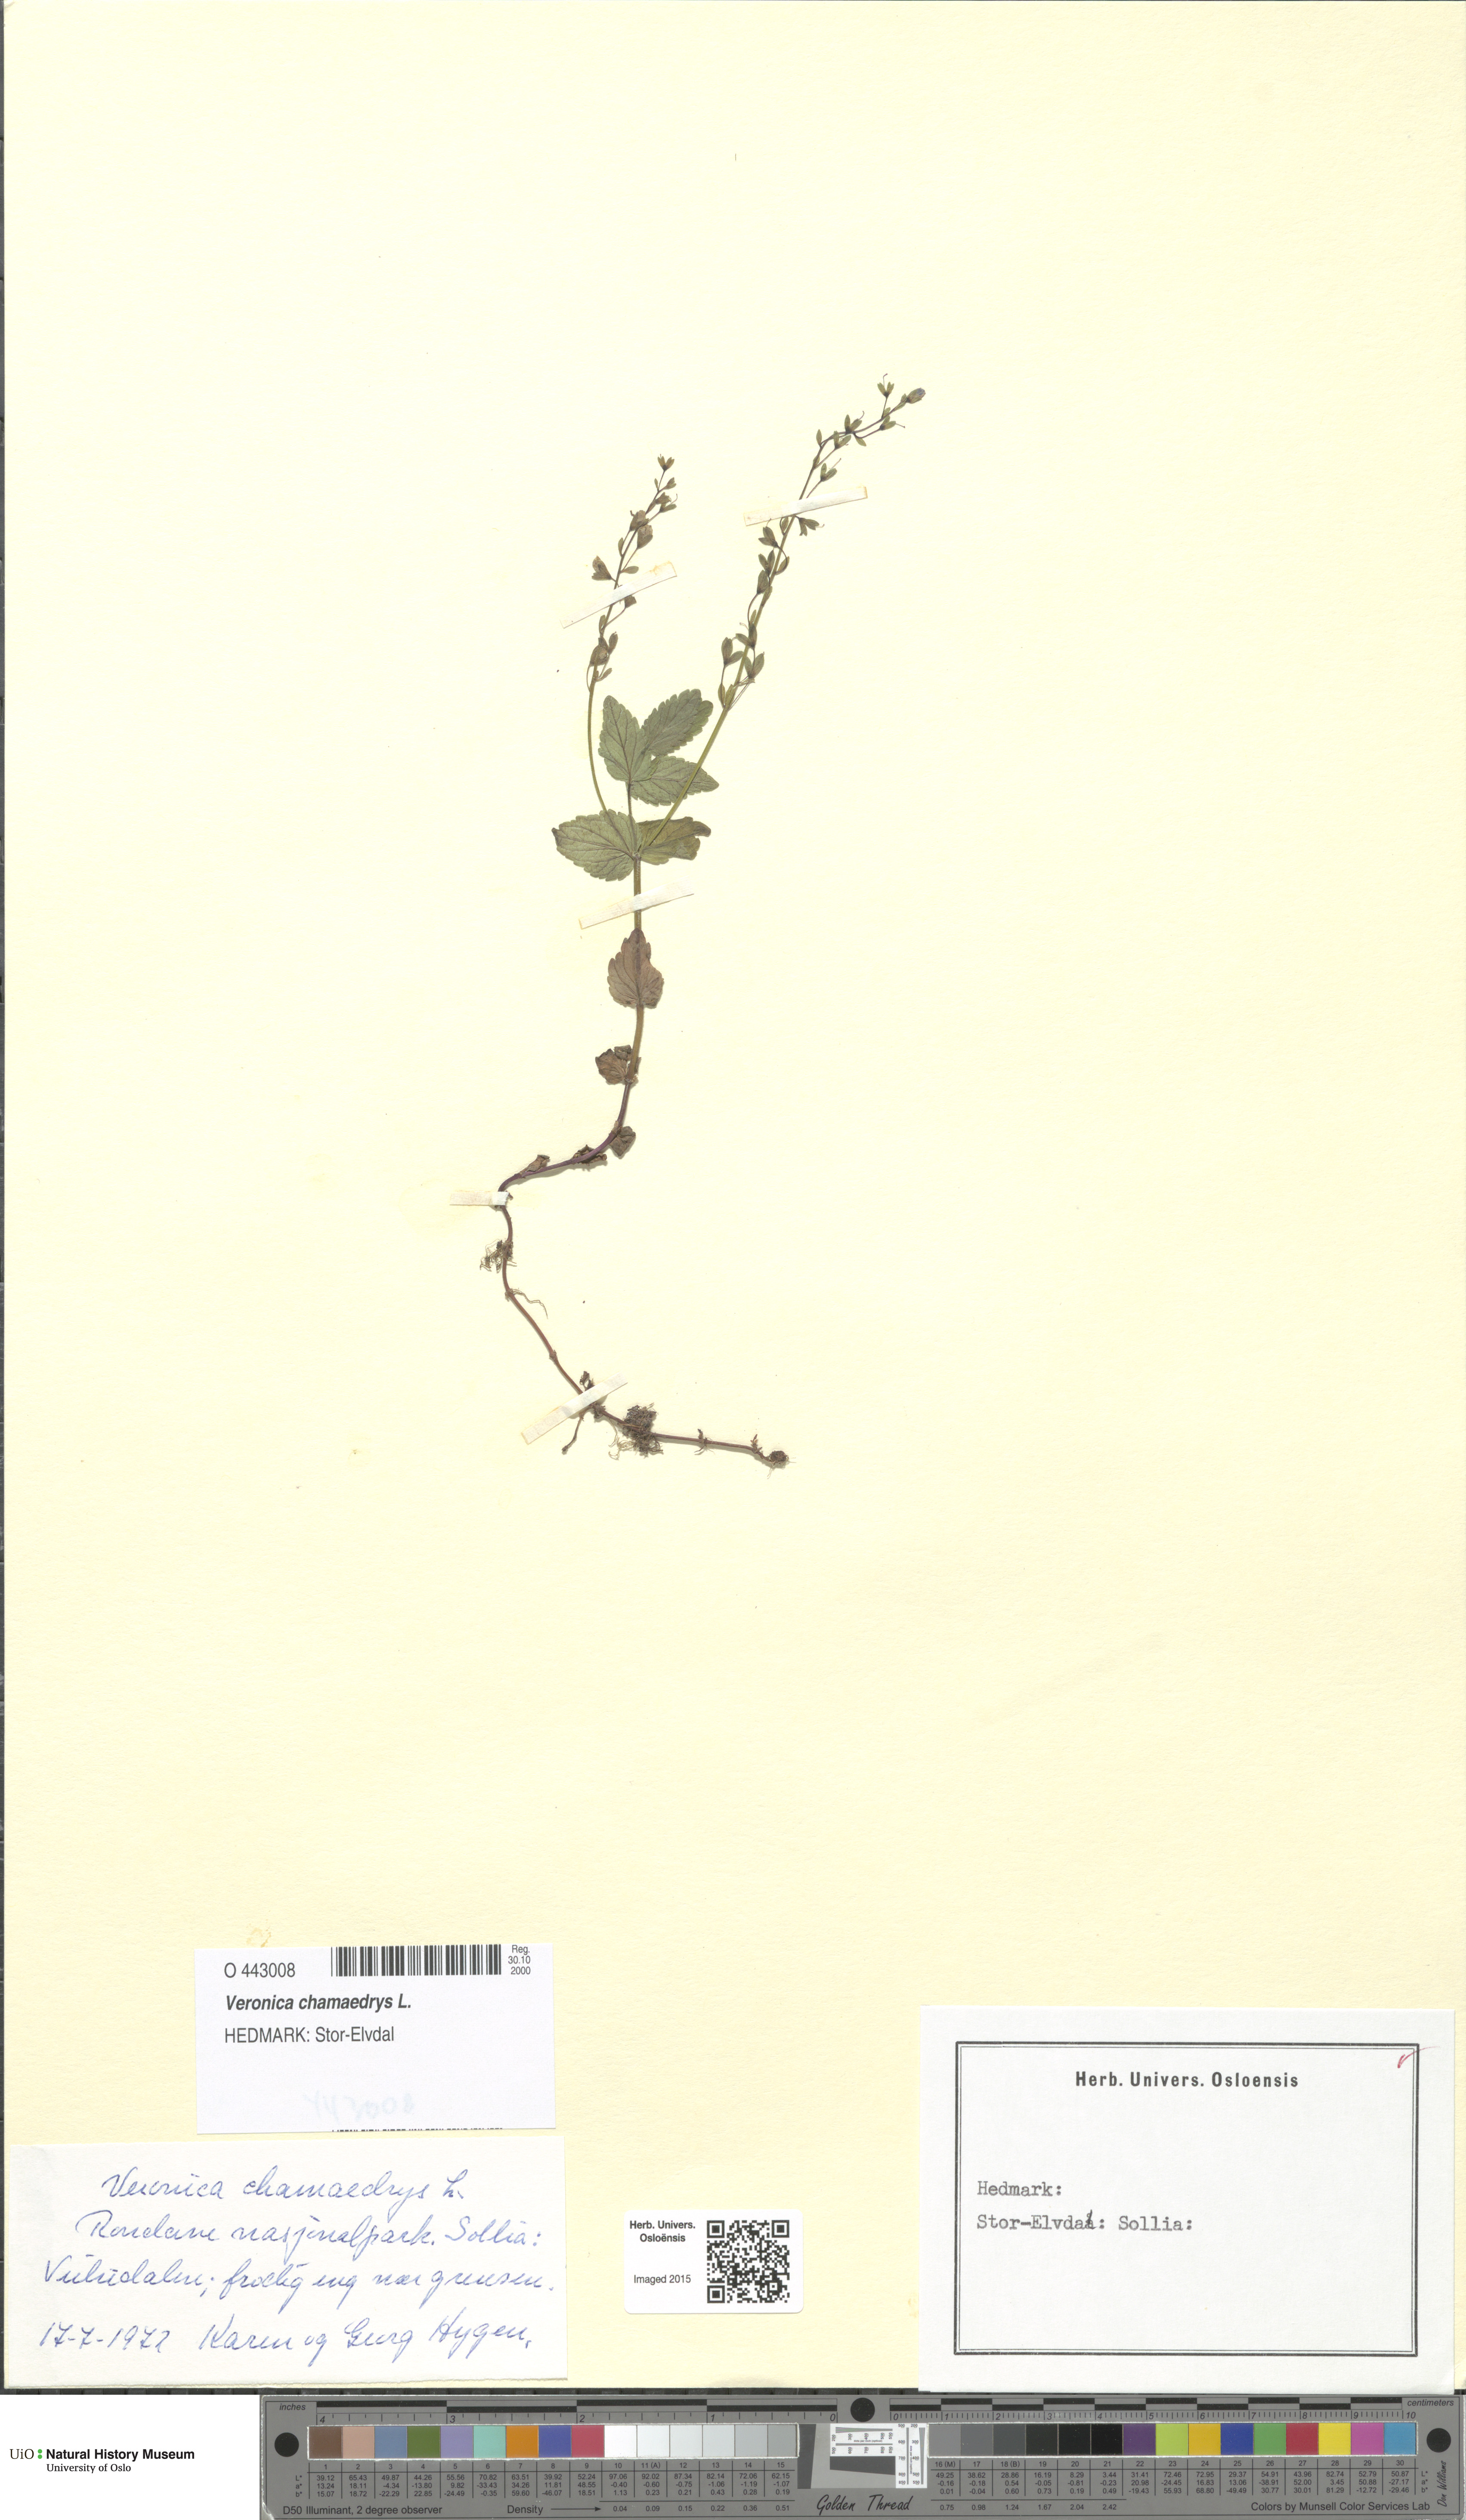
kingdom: Plantae
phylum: Tracheophyta
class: Magnoliopsida
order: Lamiales
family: Plantaginaceae
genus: Veronica
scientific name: Veronica chamaedrys
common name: Germander speedwell
